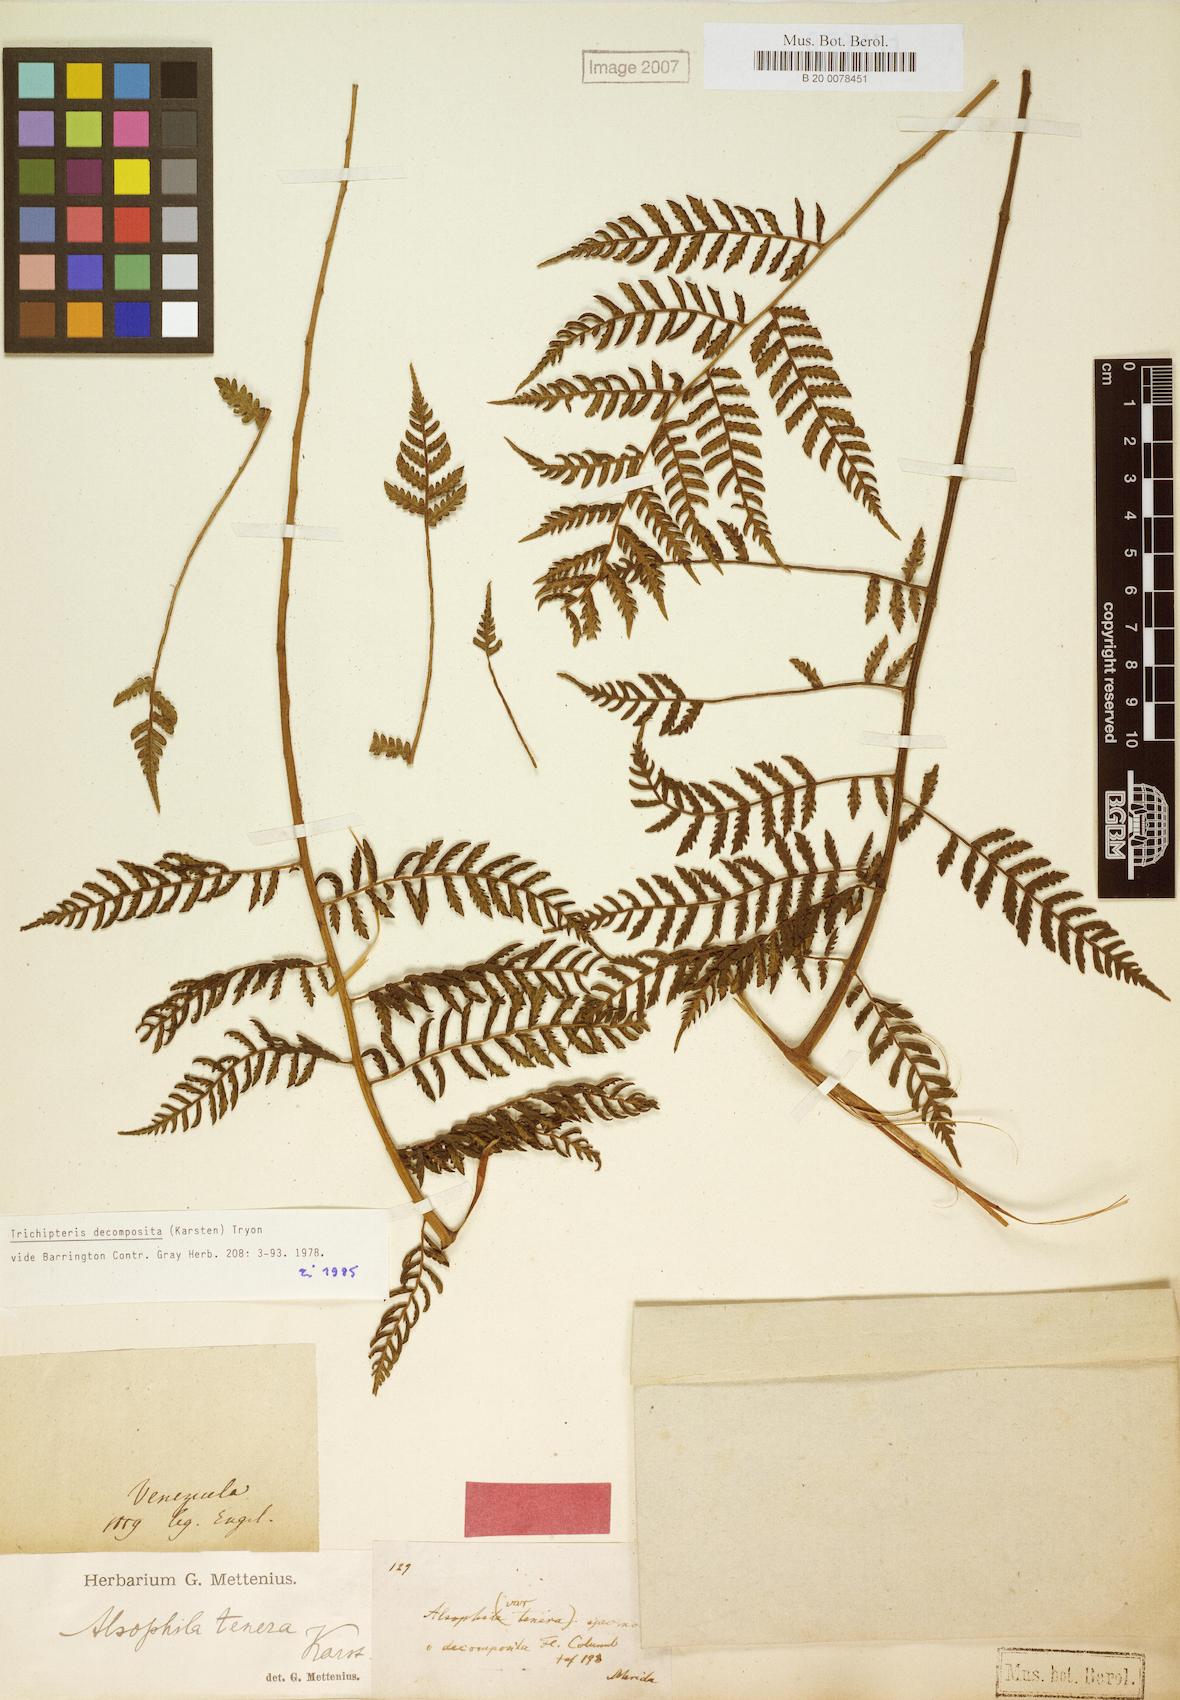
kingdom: Plantae
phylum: Tracheophyta
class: Polypodiopsida
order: Cyatheales
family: Cyatheaceae
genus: Cyathea
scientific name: Cyathea decomposita
